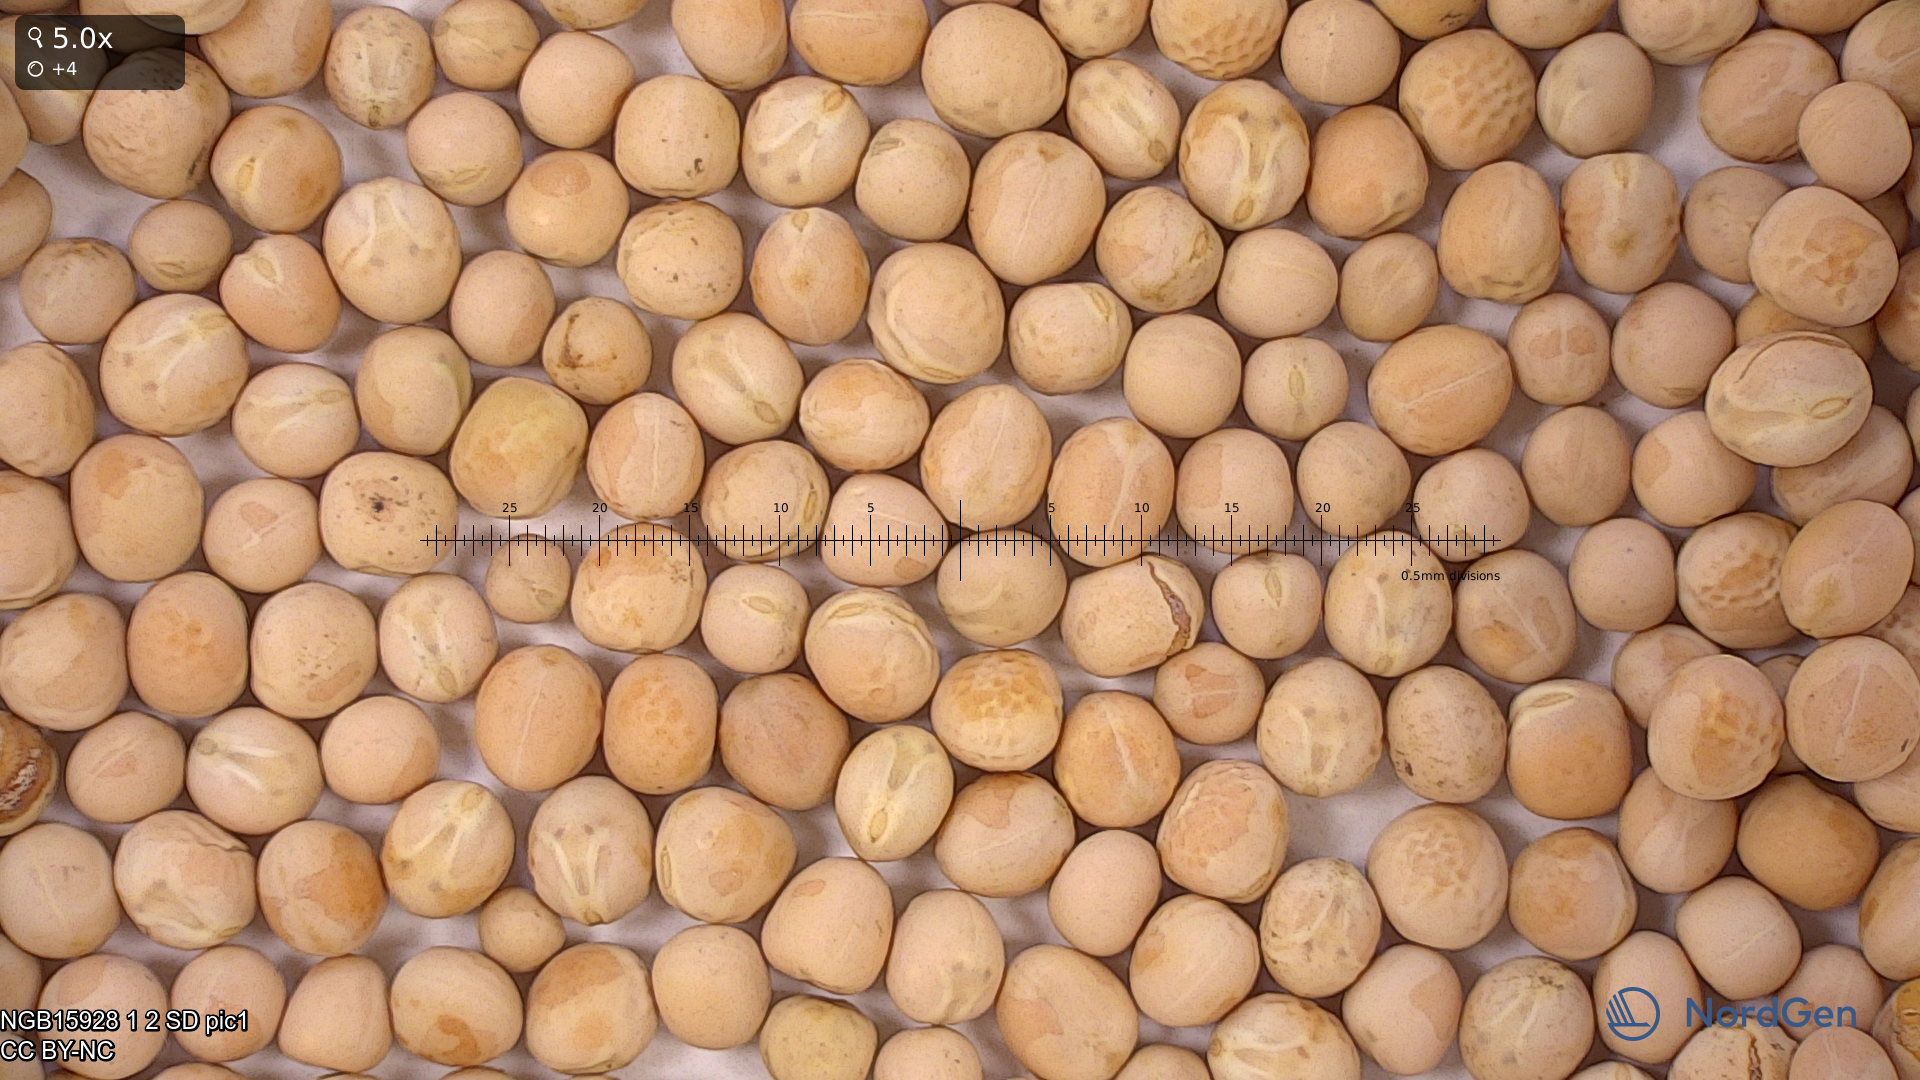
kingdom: Plantae
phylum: Tracheophyta
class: Magnoliopsida
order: Fabales
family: Fabaceae
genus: Lathyrus
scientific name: Lathyrus oleraceus
